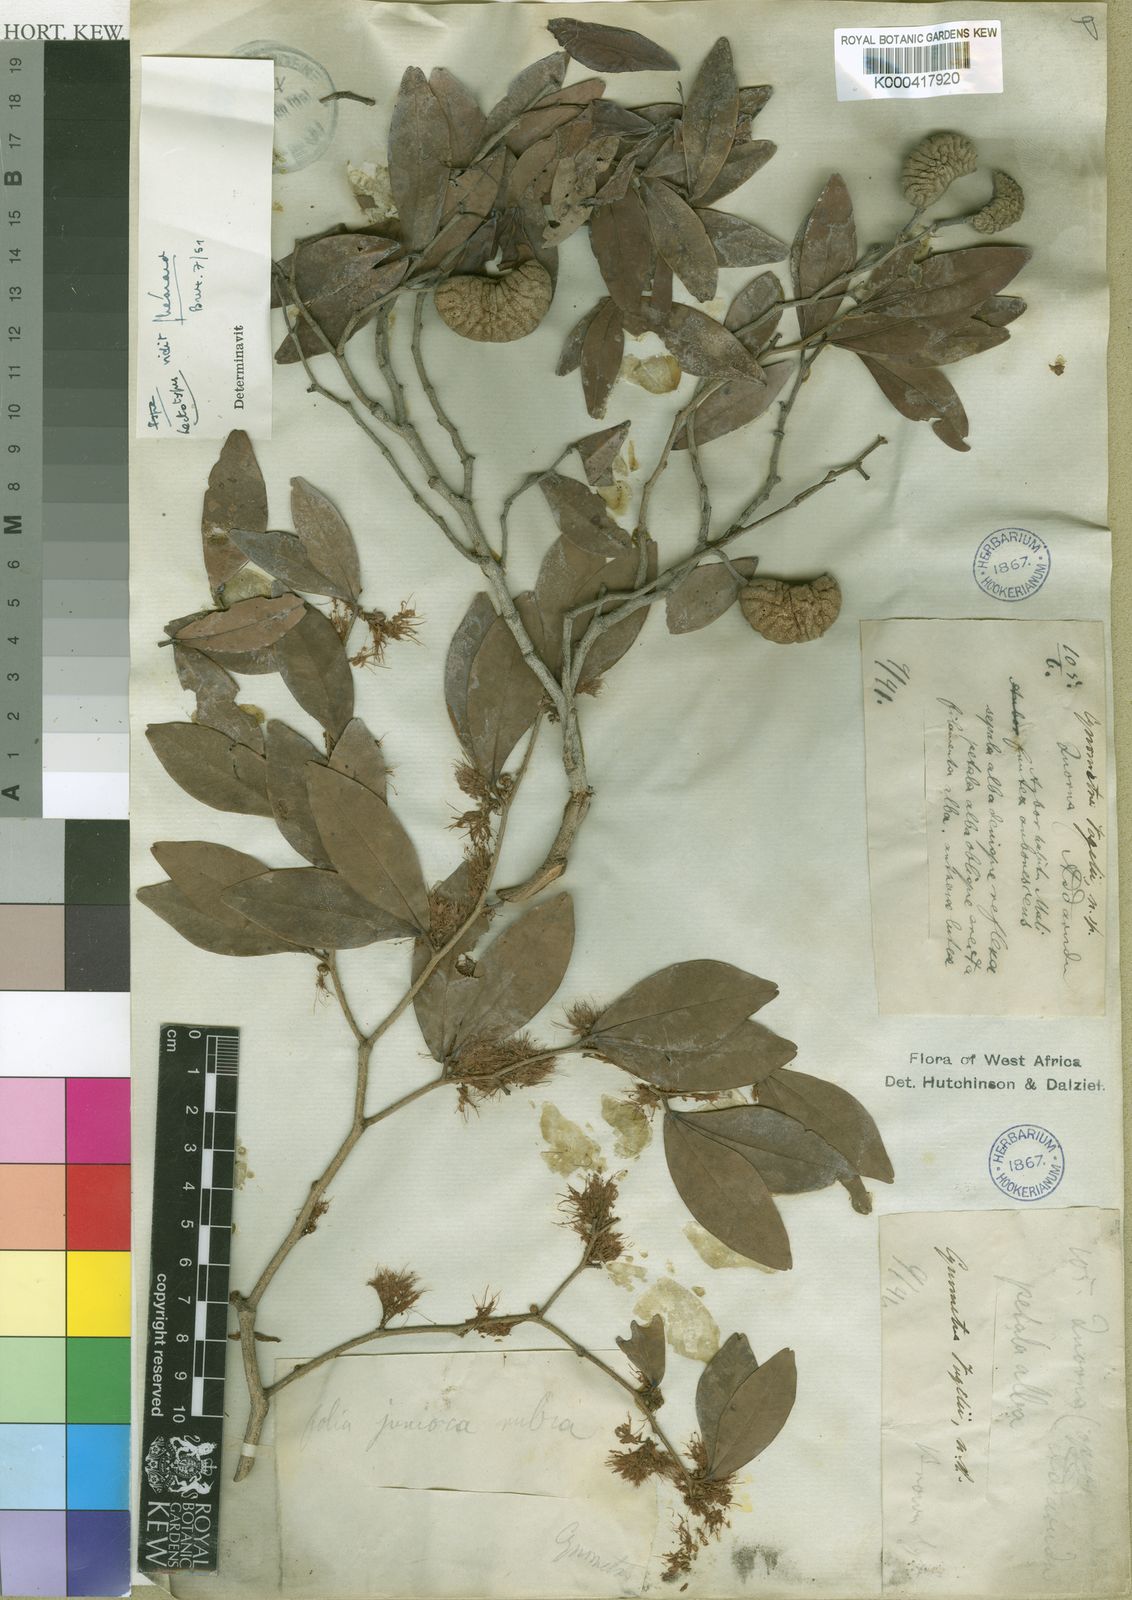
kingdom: Plantae
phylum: Tracheophyta
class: Magnoliopsida
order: Fabales
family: Fabaceae
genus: Cynometra
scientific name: Cynometra vogelii
